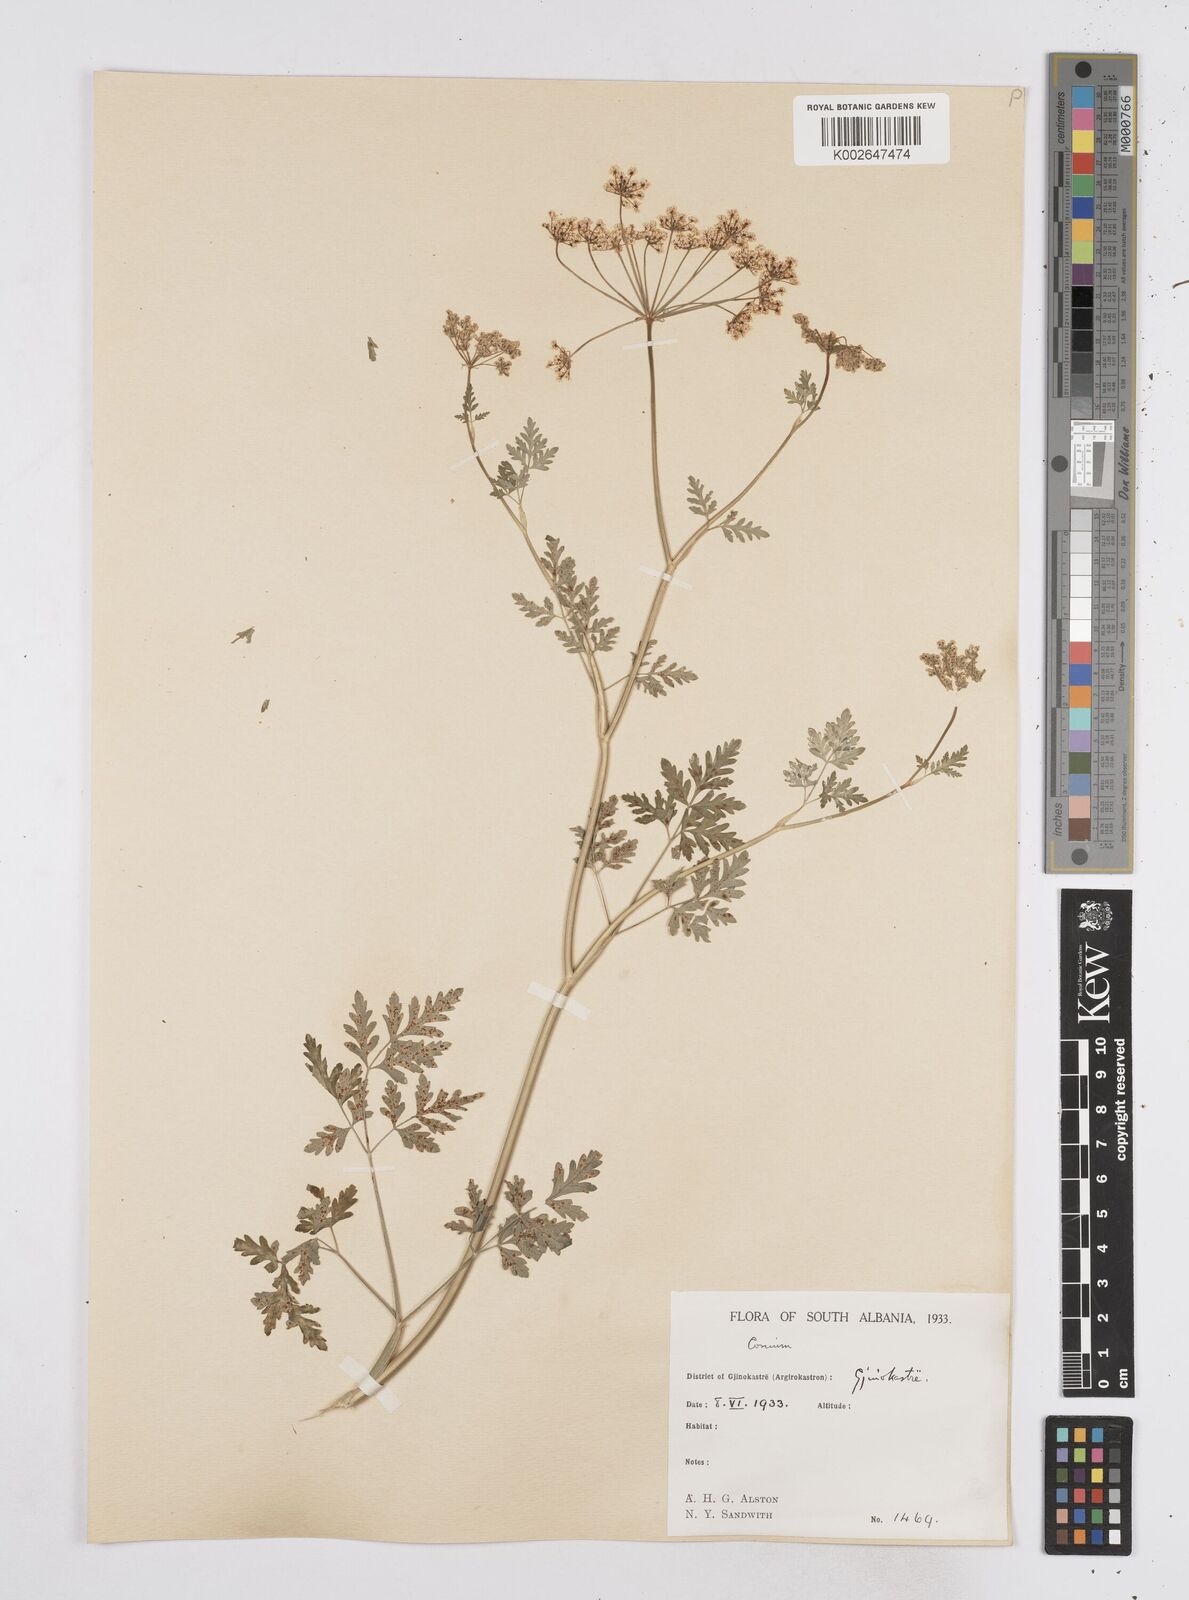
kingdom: Plantae
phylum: Tracheophyta
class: Magnoliopsida
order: Apiales
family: Apiaceae
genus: Conium
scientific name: Conium divaricatum
